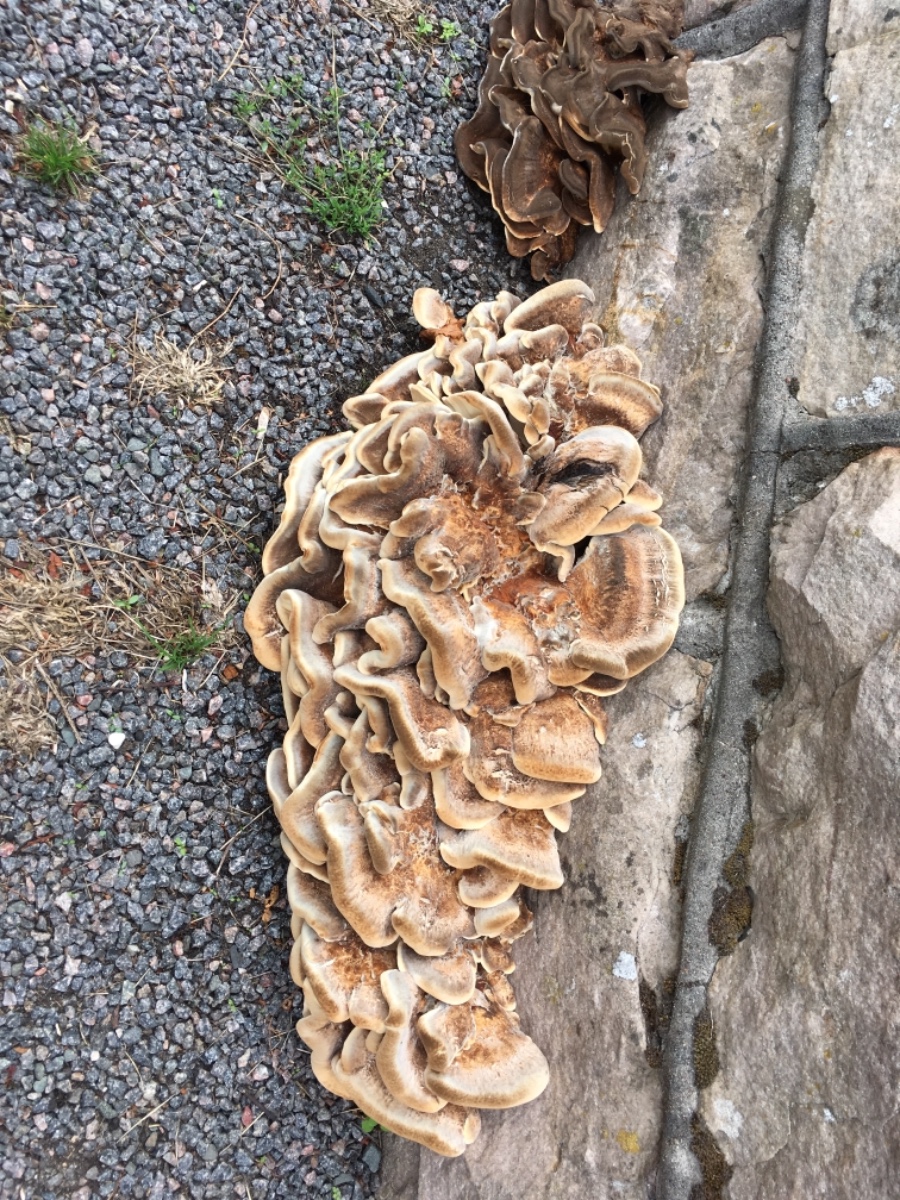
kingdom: Fungi
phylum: Basidiomycota
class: Agaricomycetes
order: Polyporales
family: Meripilaceae
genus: Meripilus
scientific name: Meripilus giganteus
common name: kæmpeporesvamp
